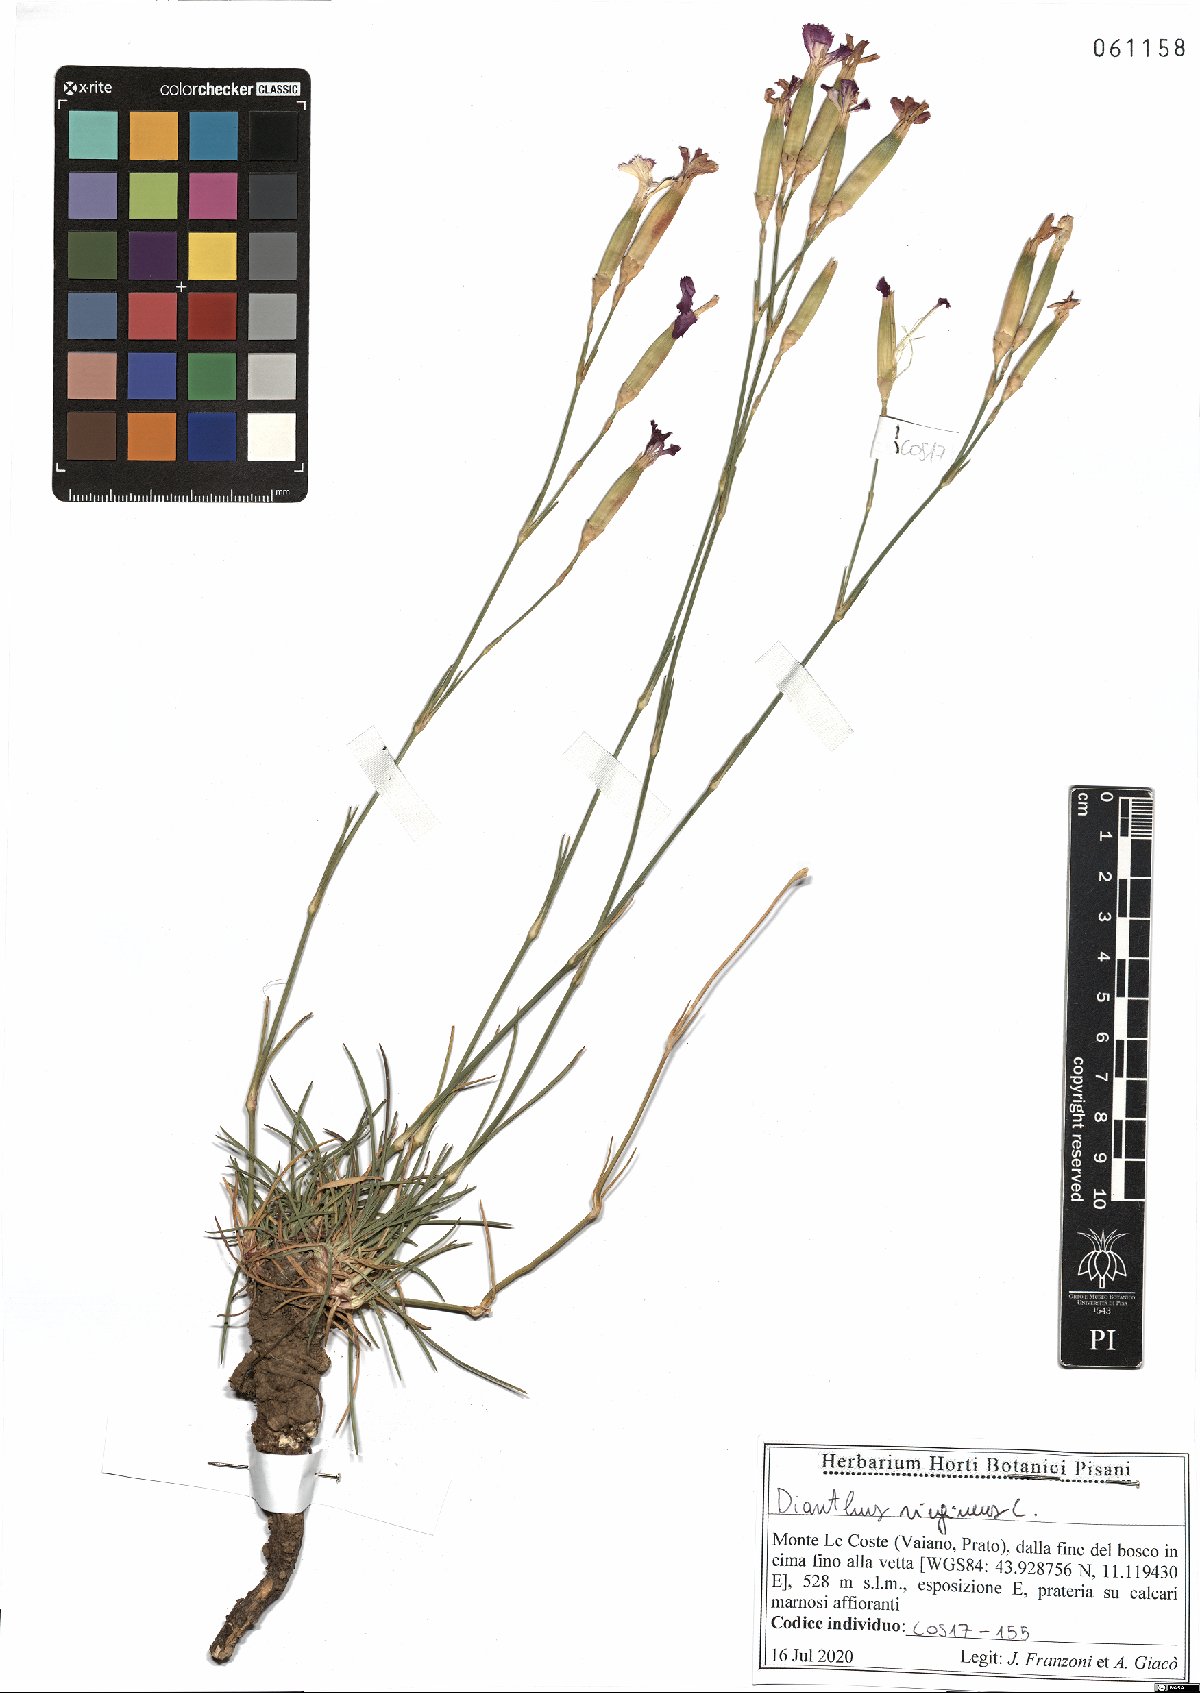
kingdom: Plantae
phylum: Tracheophyta
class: Magnoliopsida
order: Caryophyllales
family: Caryophyllaceae
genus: Dianthus
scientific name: Dianthus virgineus
